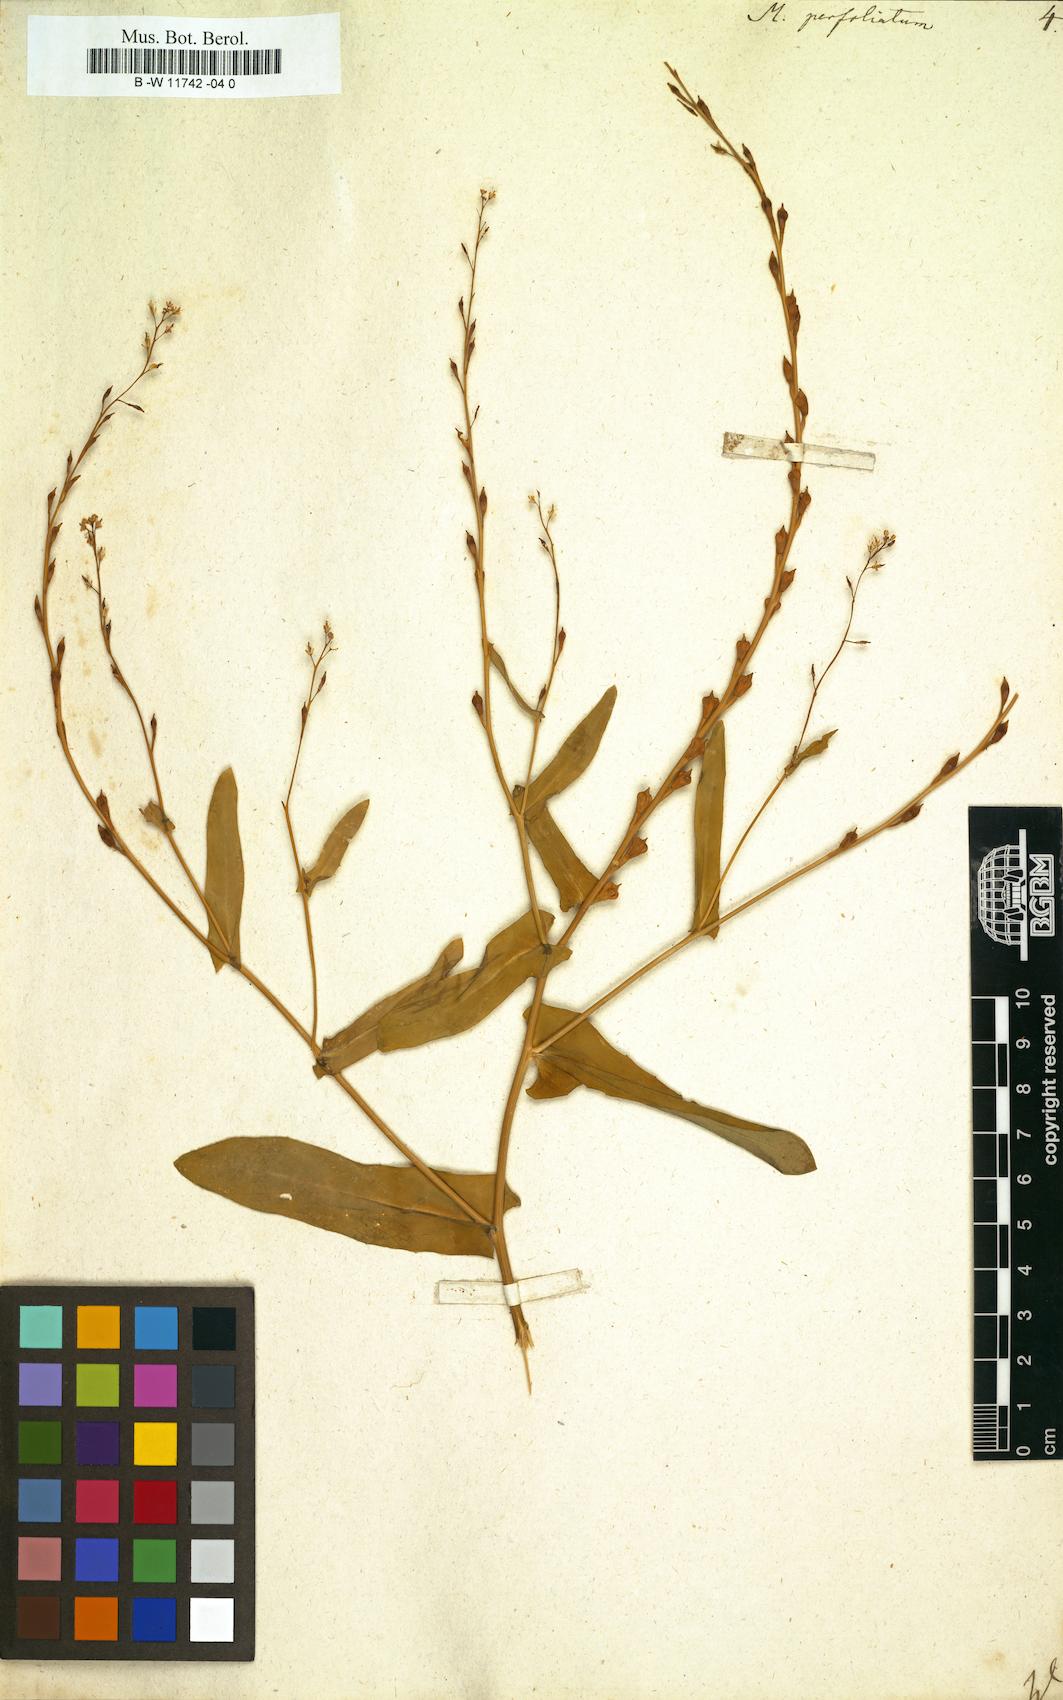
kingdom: Plantae
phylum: Tracheophyta
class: Magnoliopsida
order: Brassicales
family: Brassicaceae
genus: Myagrum
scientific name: Myagrum perfoliatum
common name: Mitre cress
